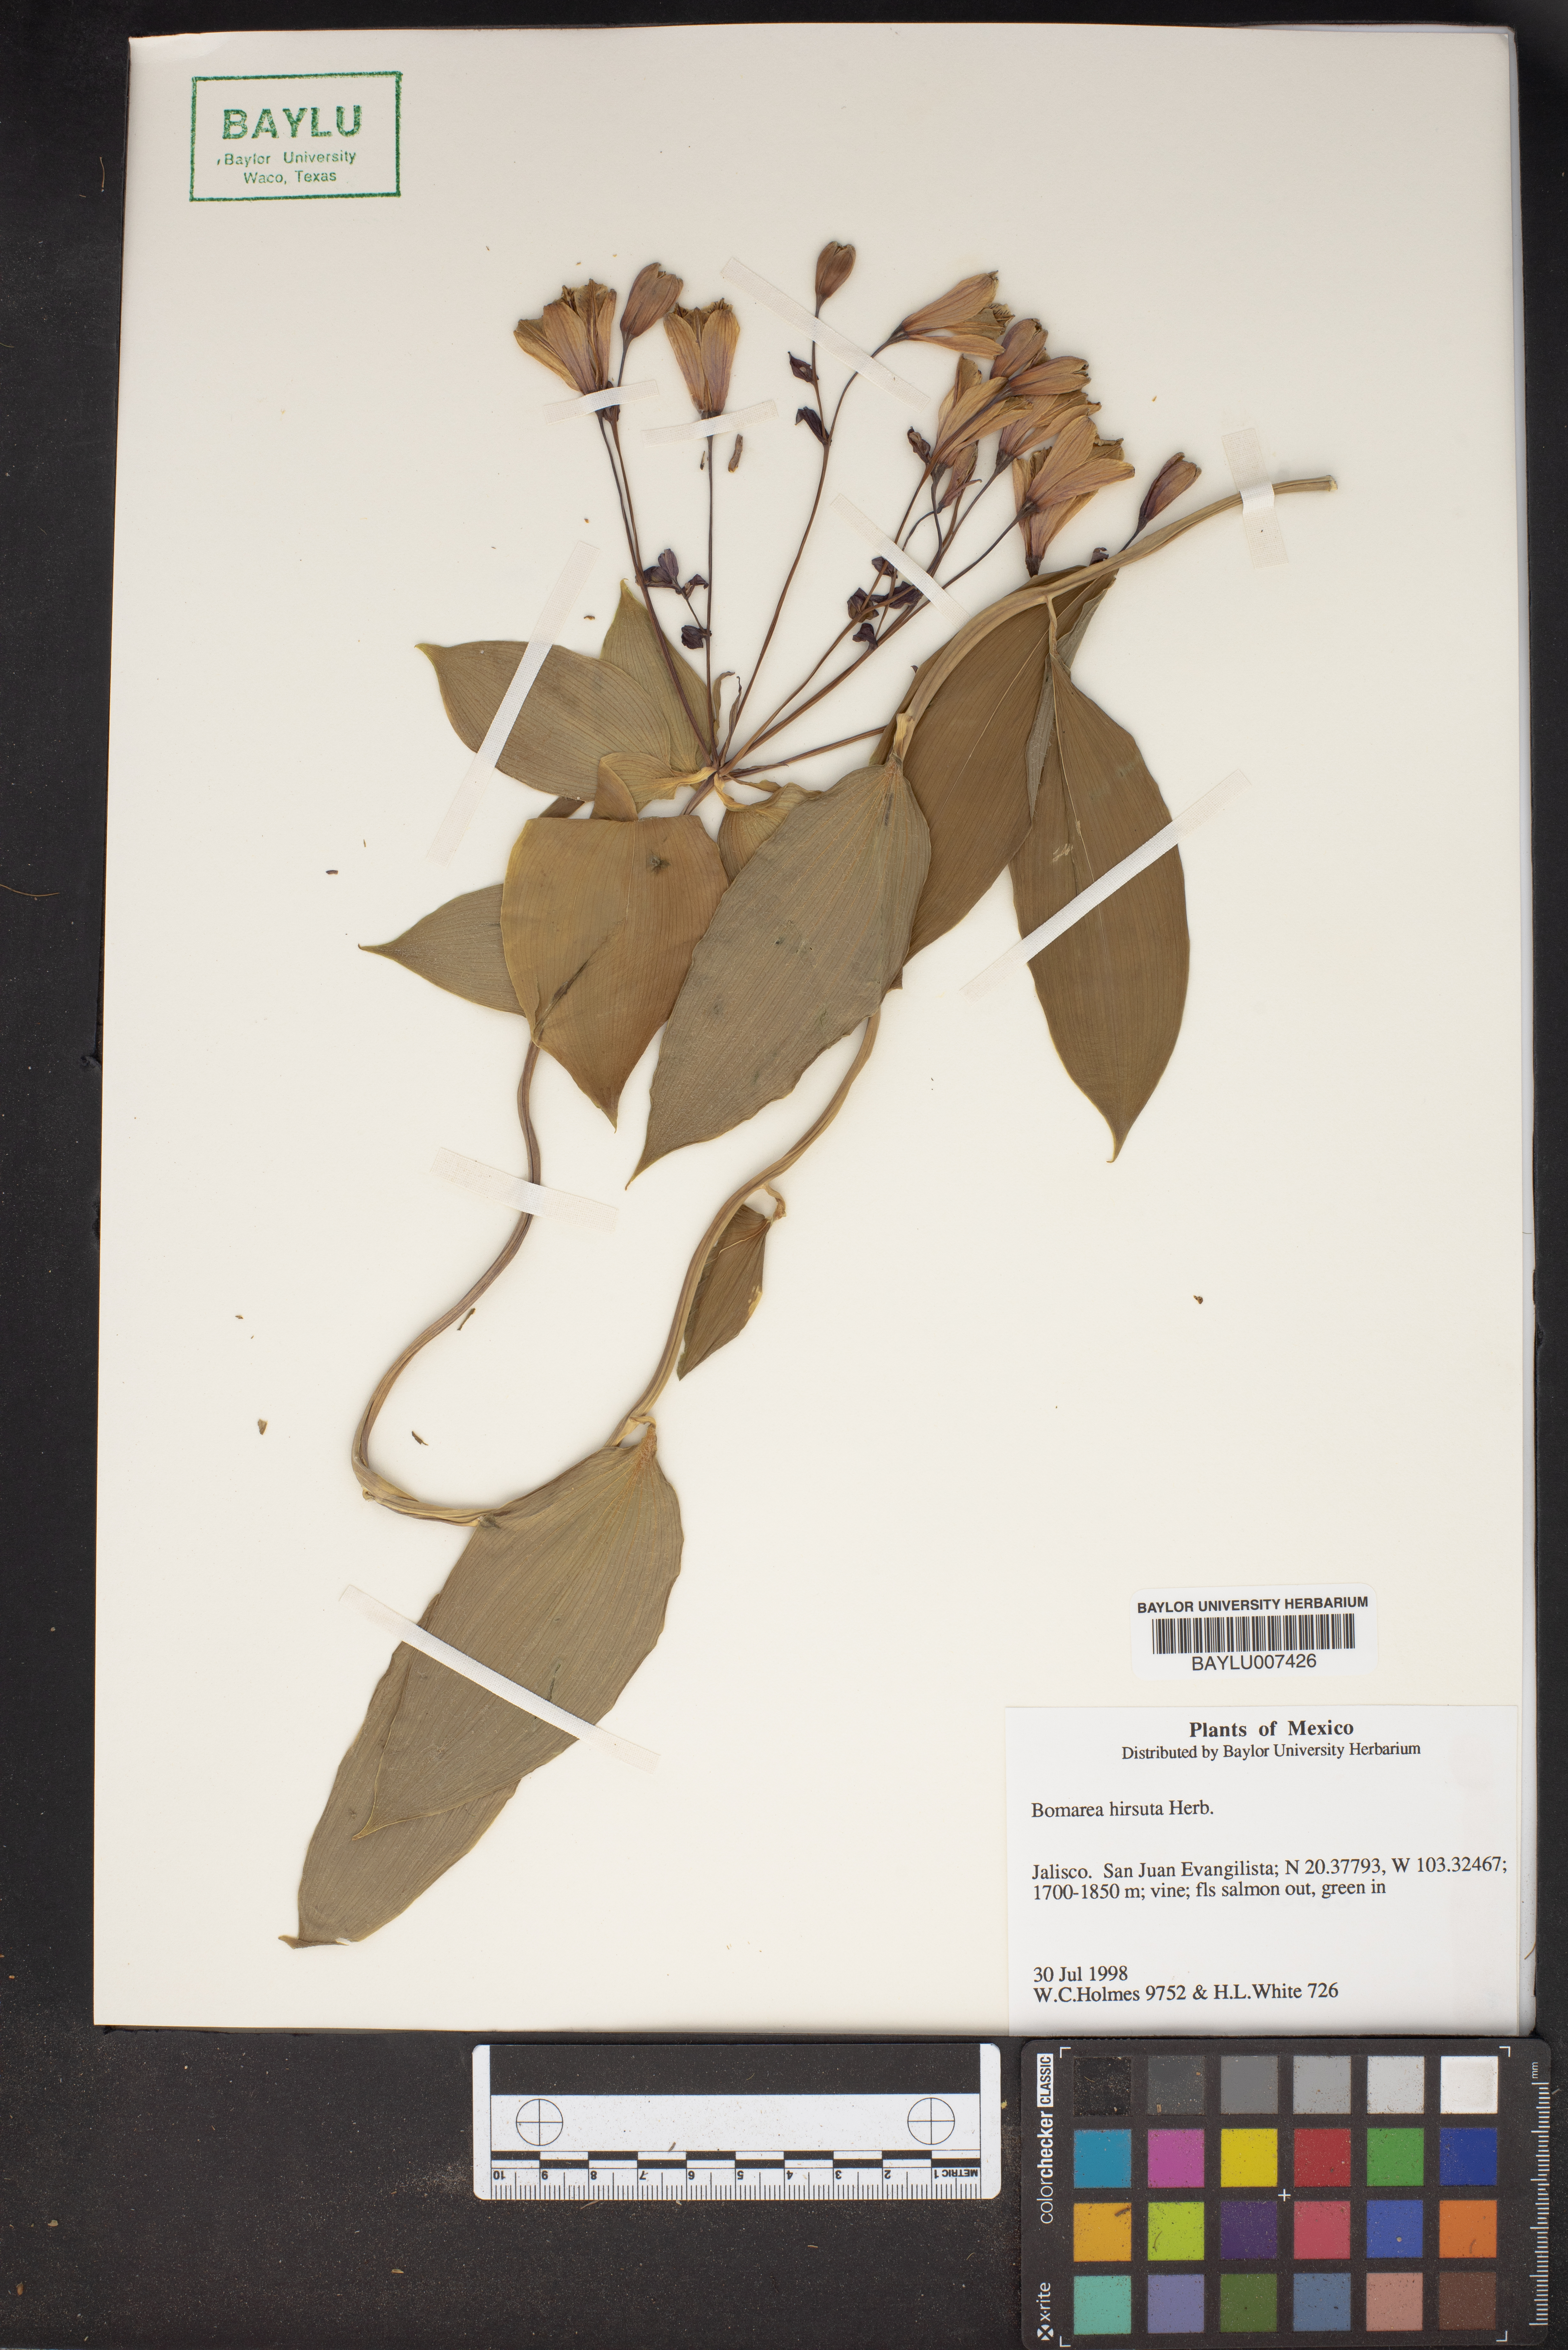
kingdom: Plantae
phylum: Tracheophyta
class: Liliopsida
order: Liliales
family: Alstroemeriaceae
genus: Bomarea
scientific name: Bomarea hirsuta
